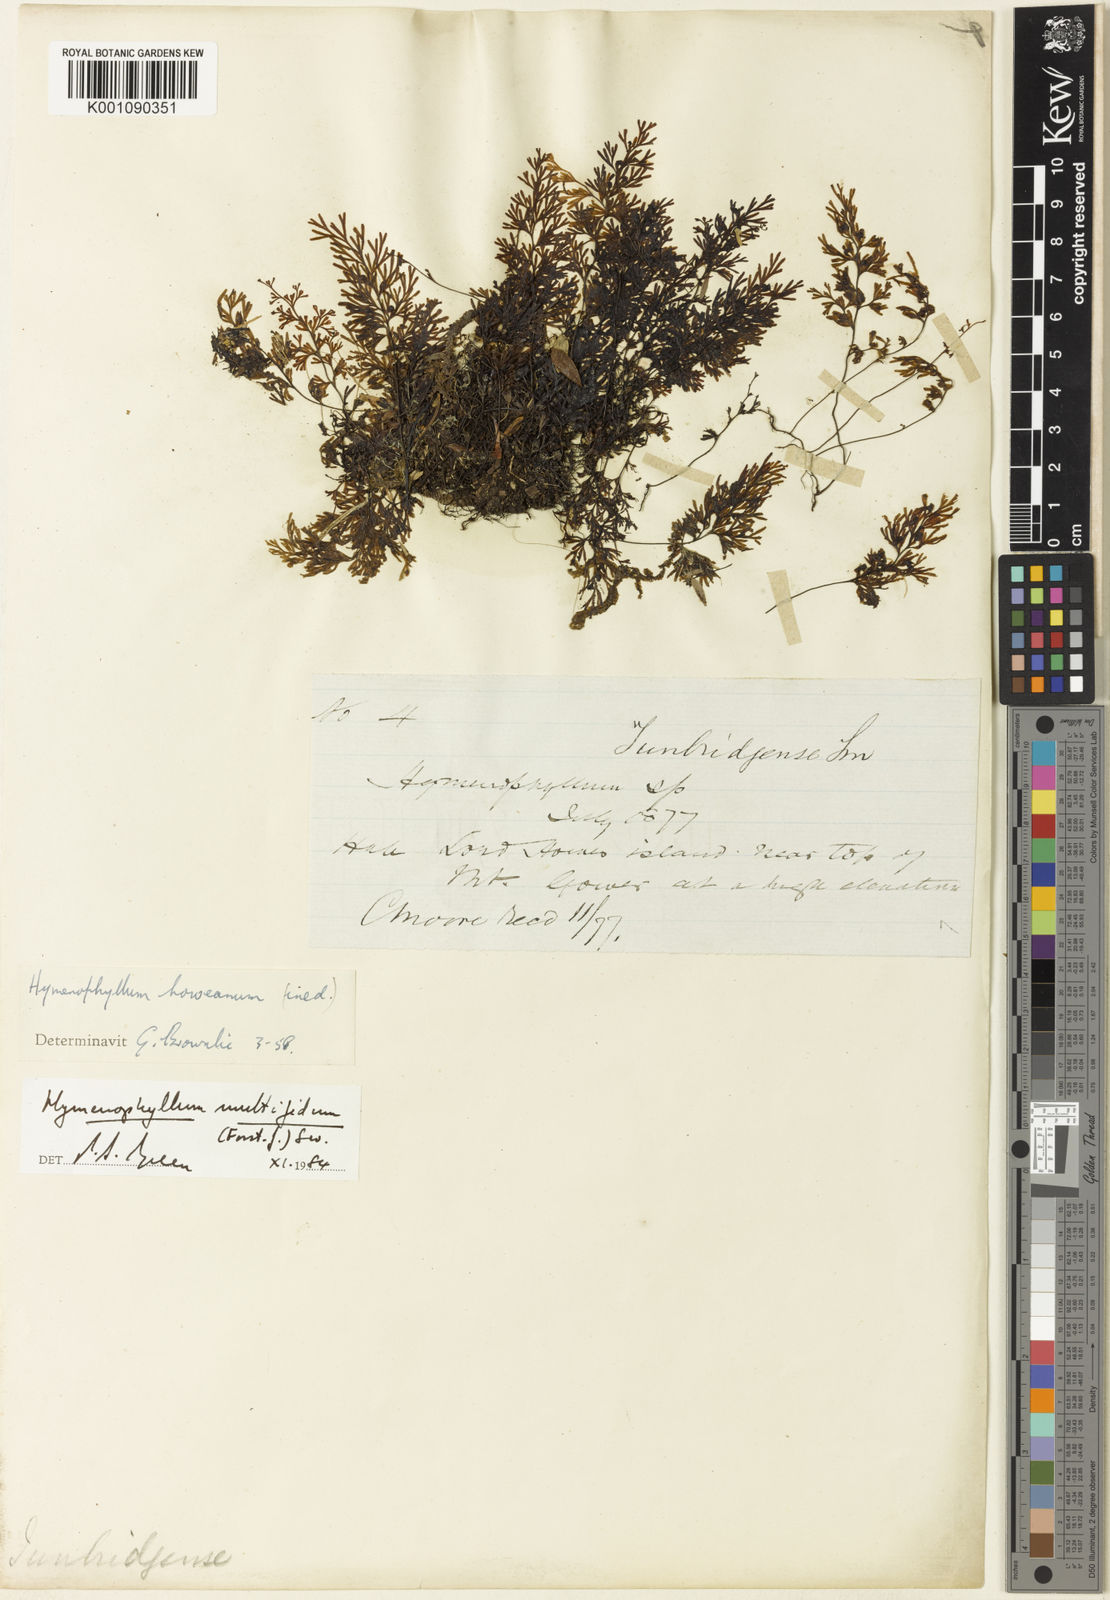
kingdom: Plantae
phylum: Tracheophyta
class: Polypodiopsida
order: Hymenophyllales
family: Hymenophyllaceae
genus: Hymenophyllum
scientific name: Hymenophyllum multifidum
